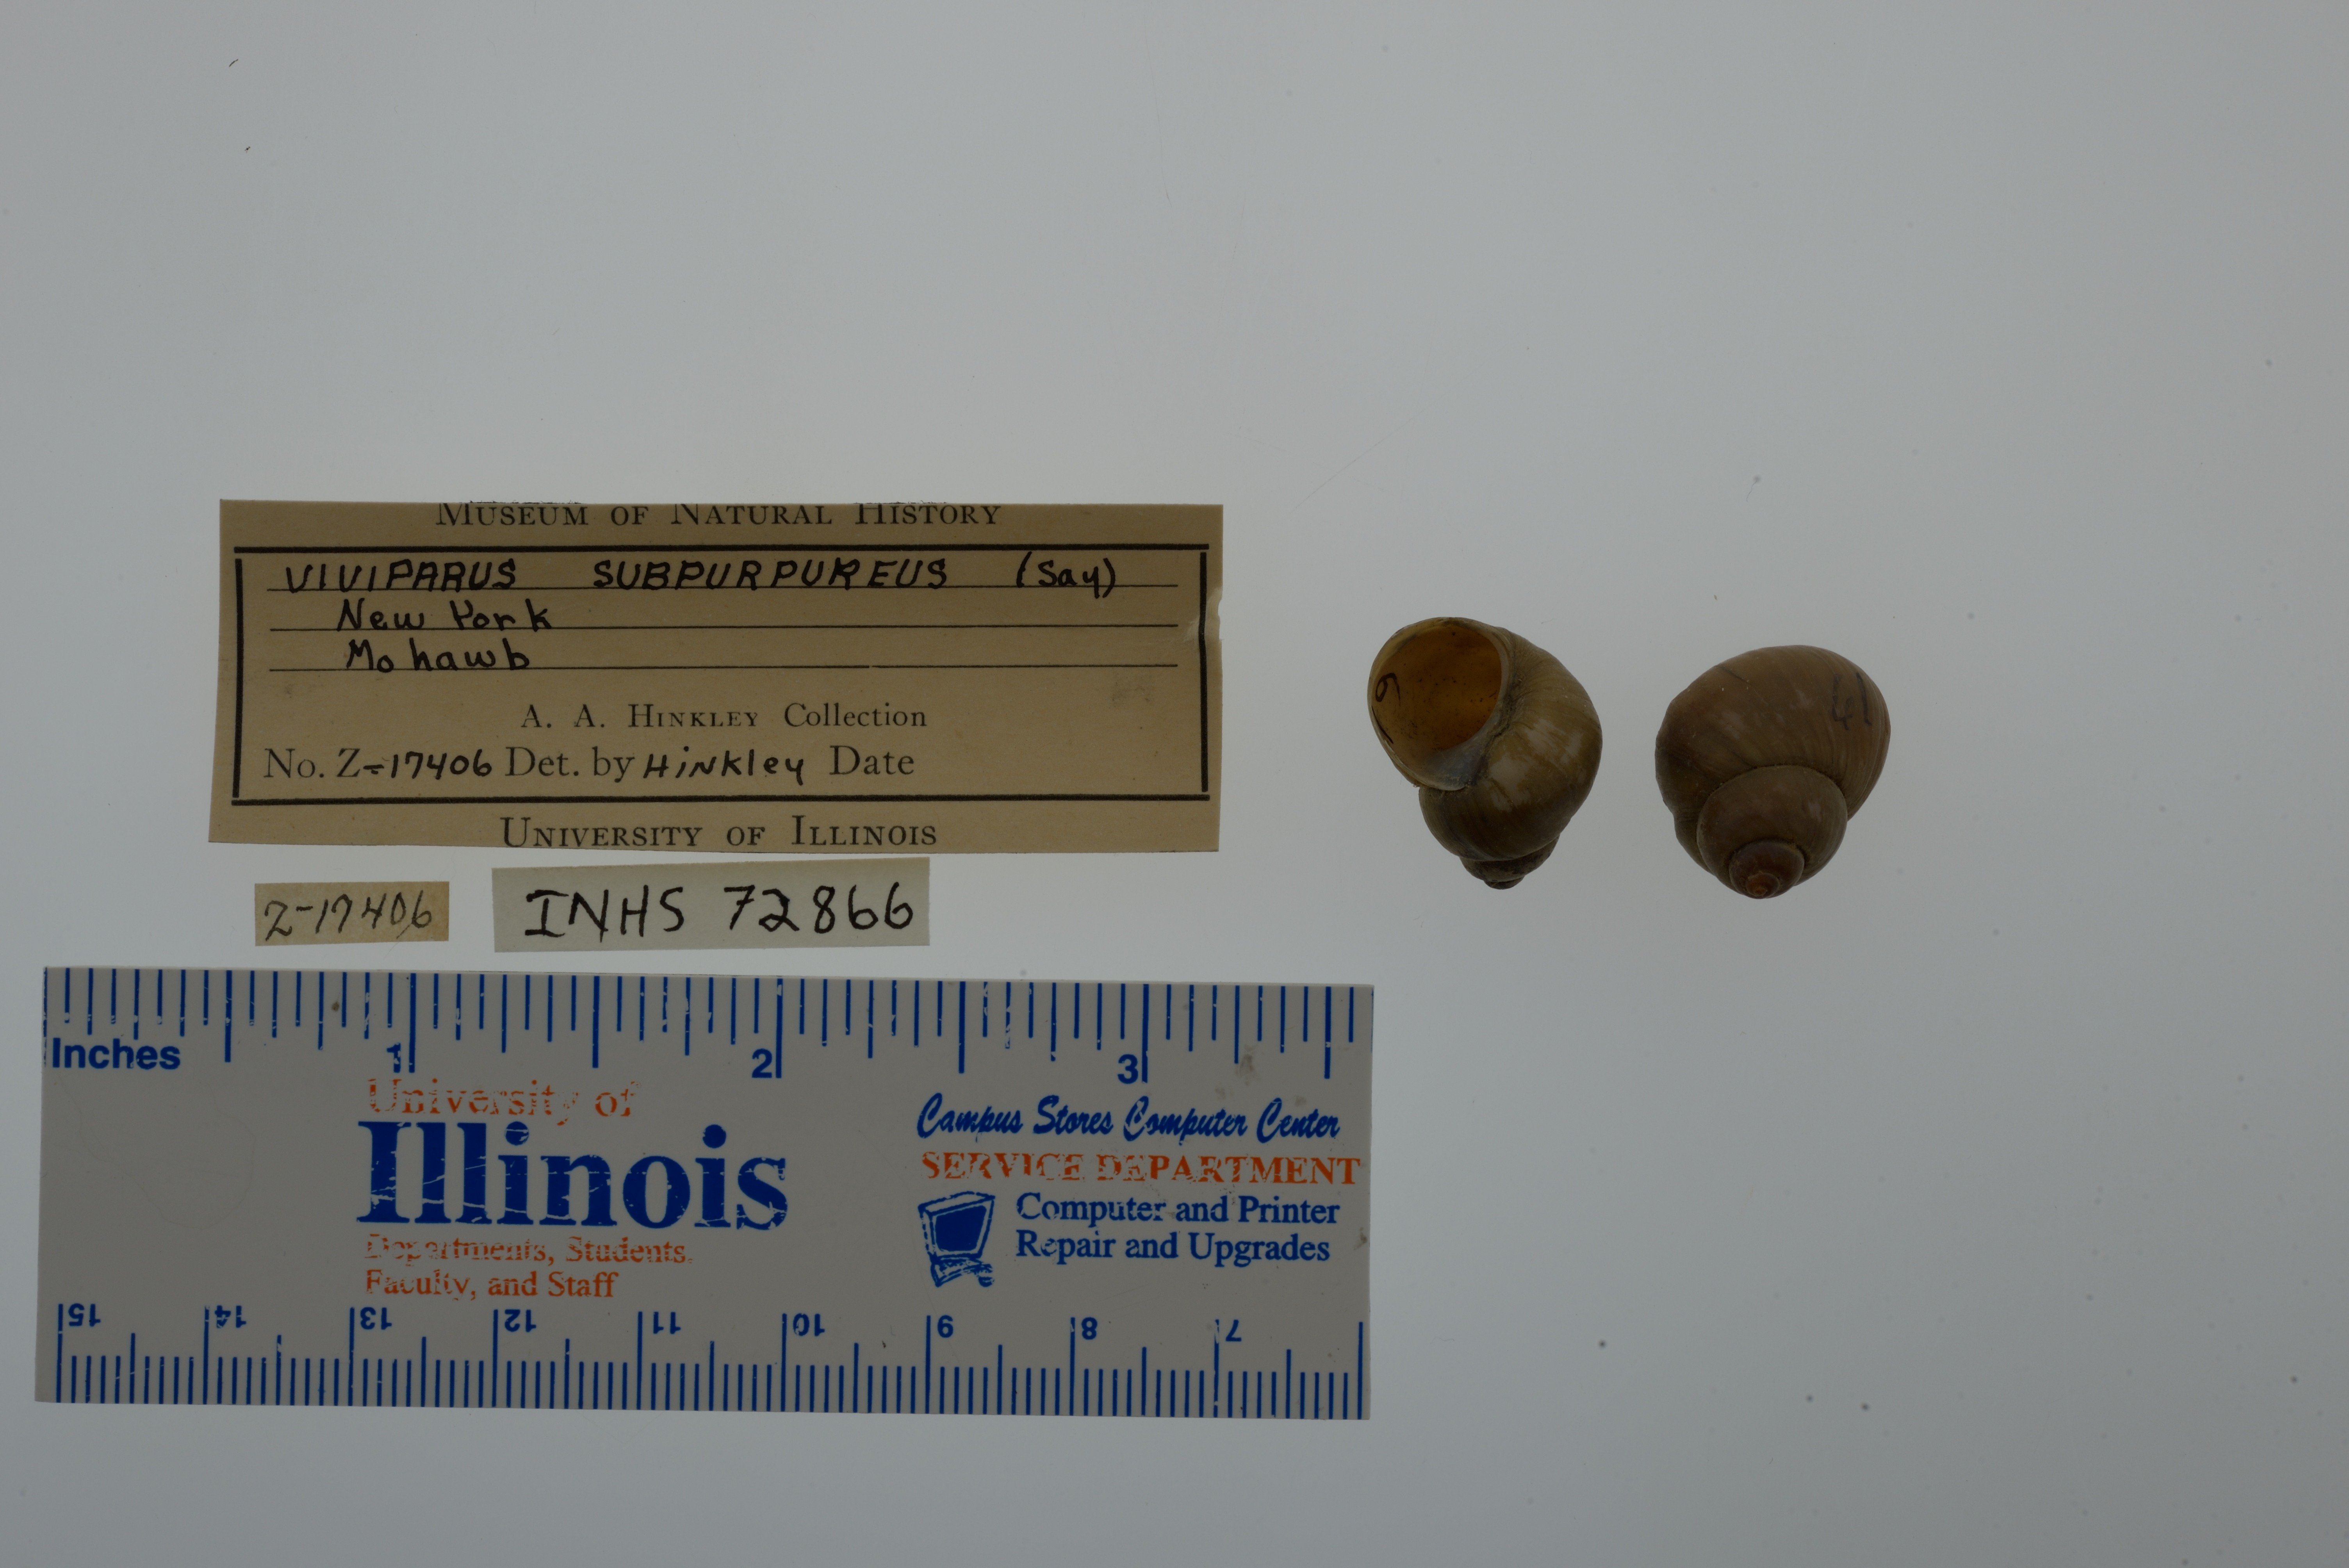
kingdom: Animalia
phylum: Mollusca
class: Gastropoda
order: Architaenioglossa
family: Viviparidae
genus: Callinina
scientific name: Callinina subpurpurea
